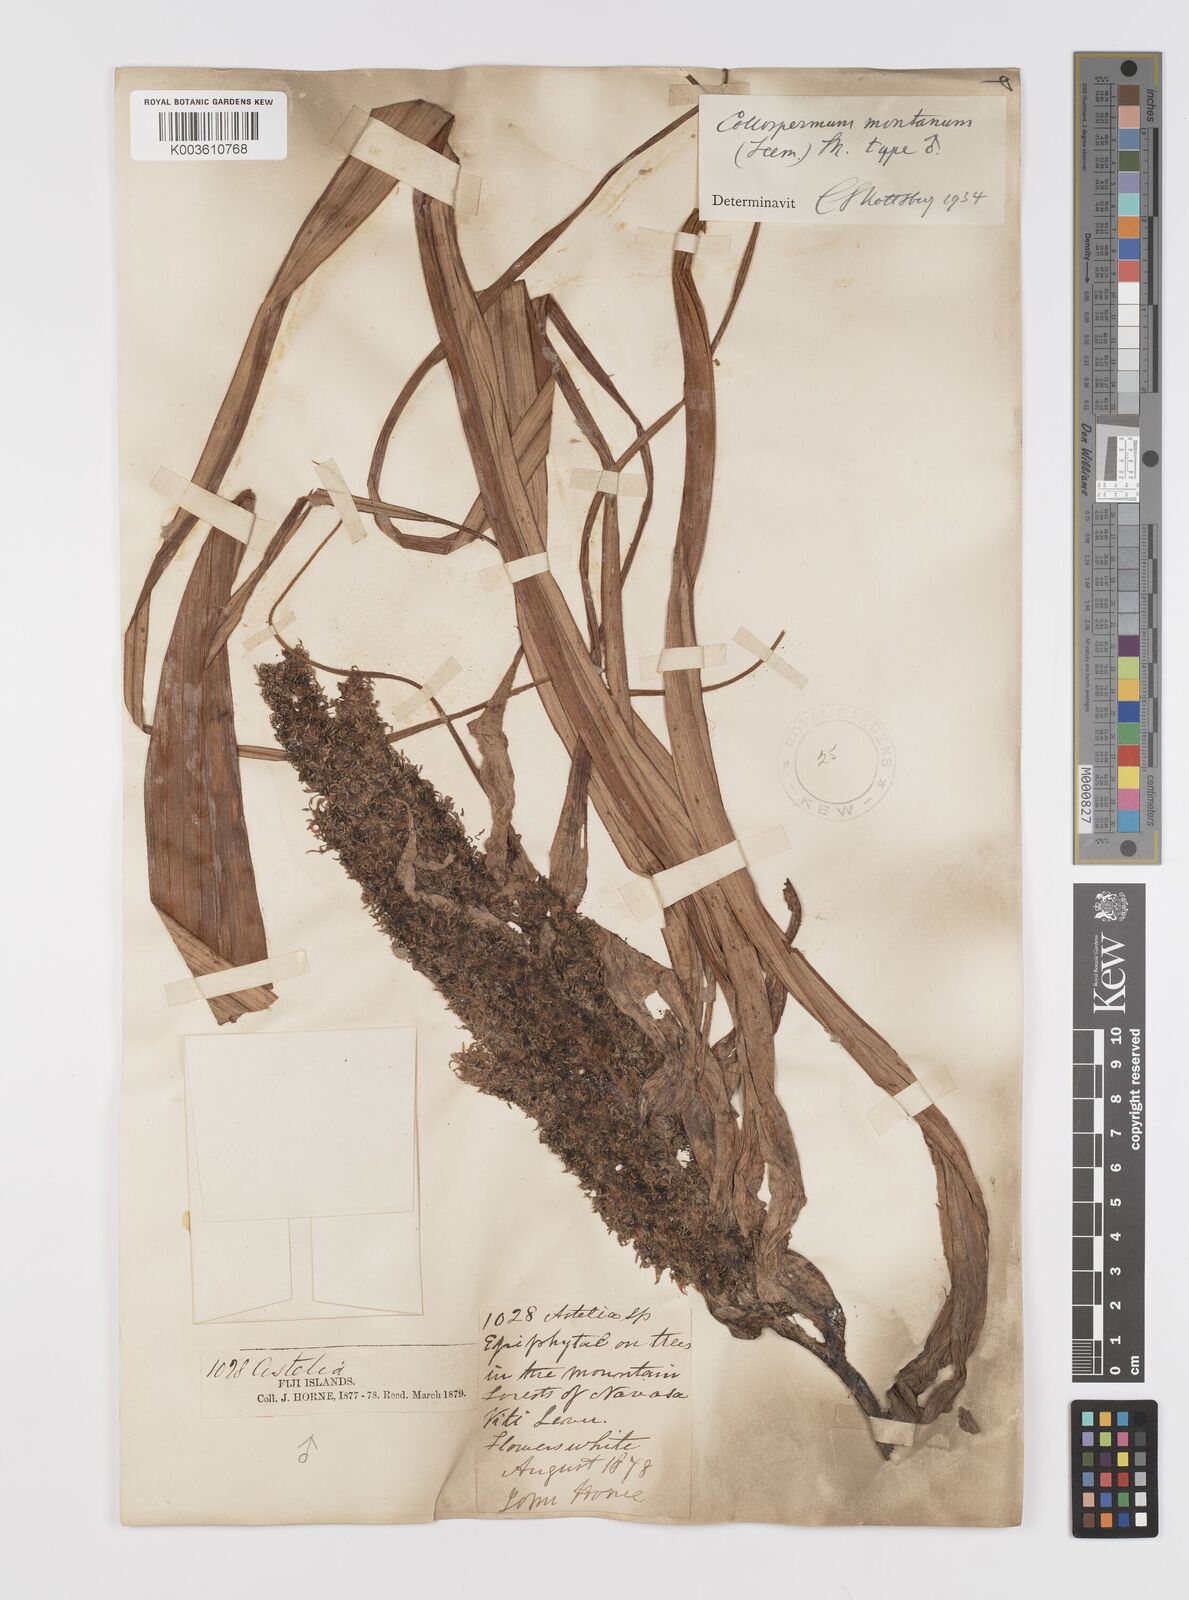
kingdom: Plantae
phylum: Tracheophyta
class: Liliopsida
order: Asparagales
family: Asteliaceae
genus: Astelia
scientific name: Astelia montana
